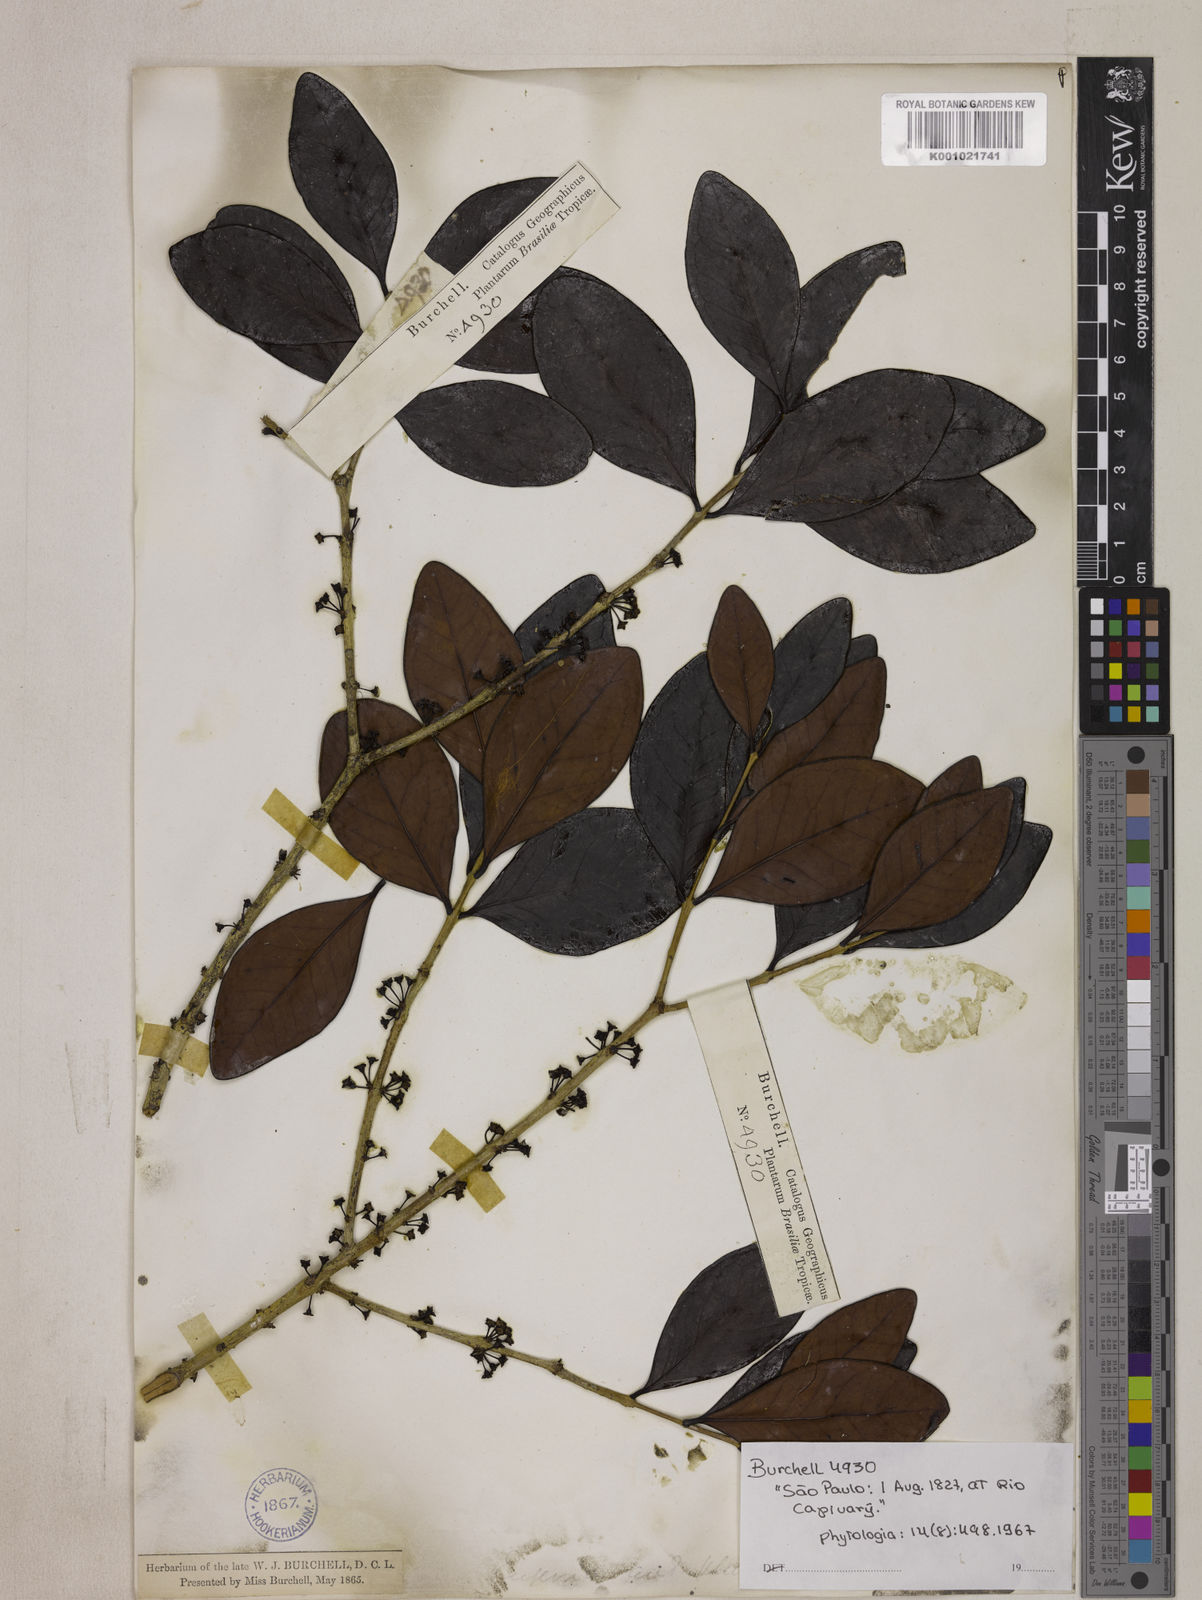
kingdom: Plantae
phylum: Tracheophyta
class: Magnoliopsida
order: Myrtales
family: Myrtaceae
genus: Eugenia
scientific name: Eugenia pluriflora
